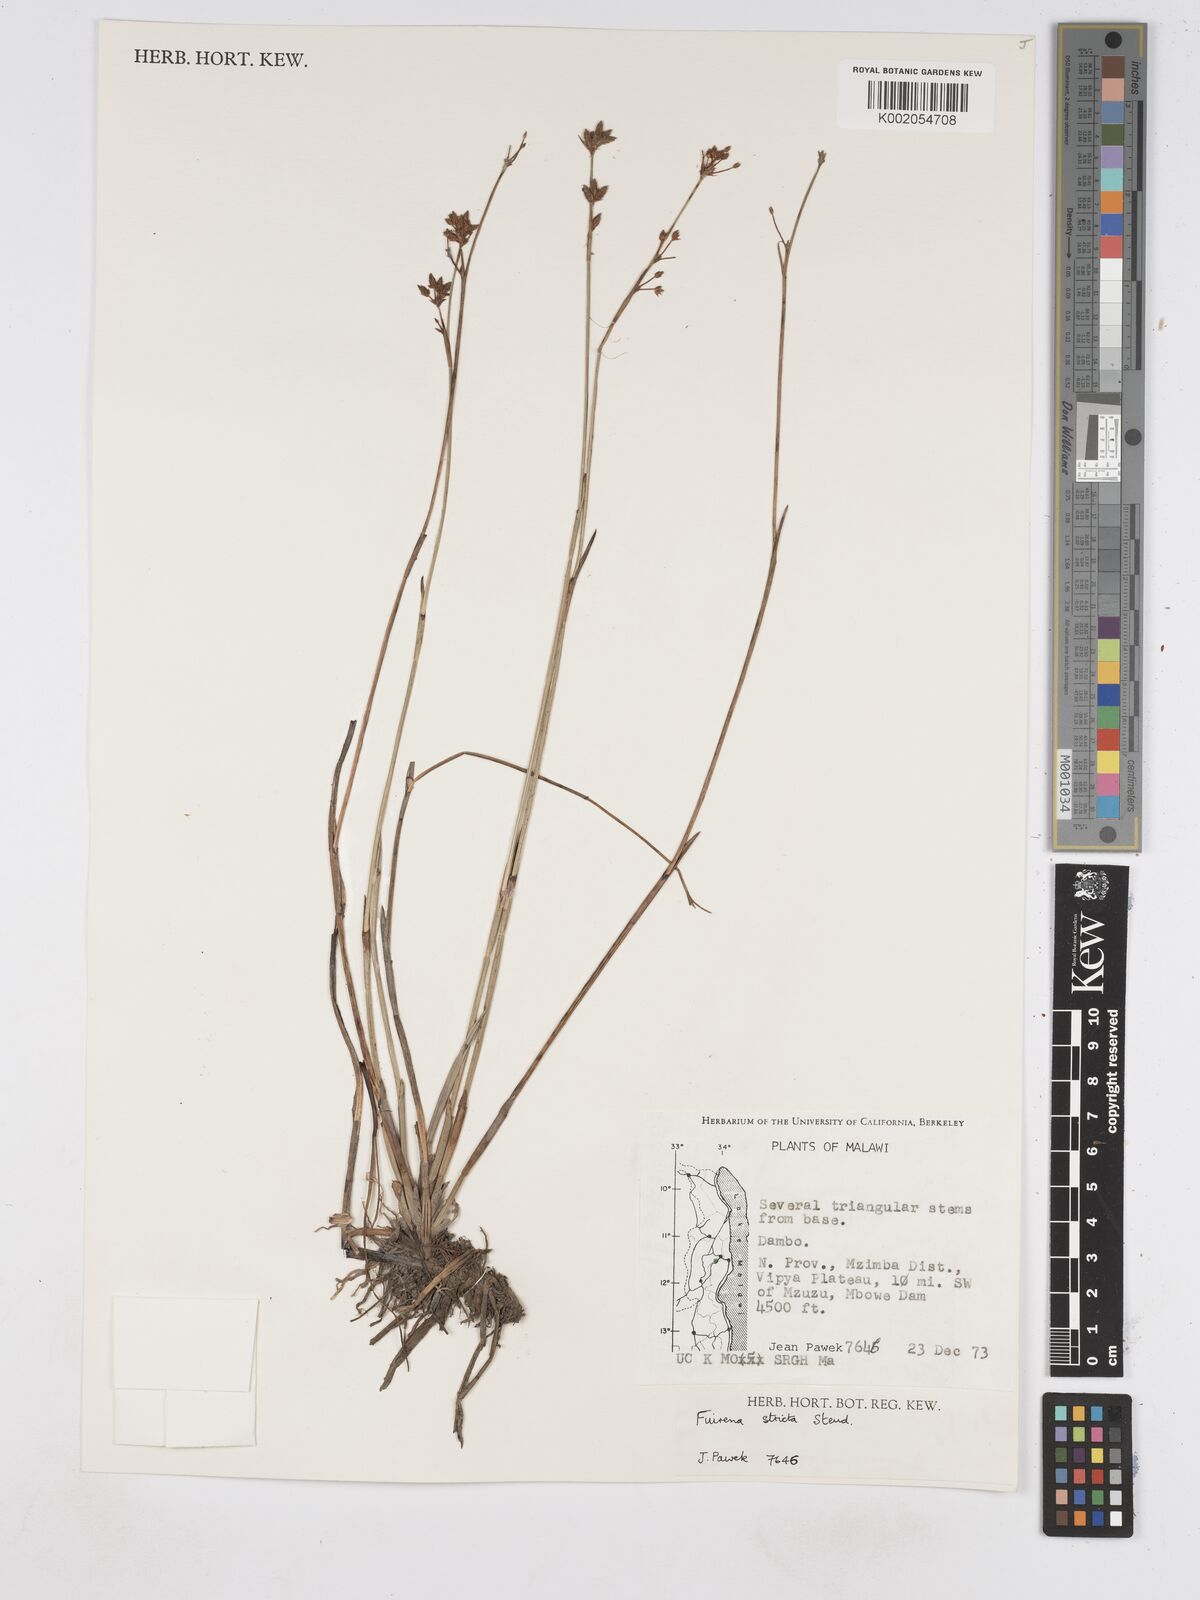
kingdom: Plantae
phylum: Tracheophyta
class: Liliopsida
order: Poales
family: Cyperaceae
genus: Fuirena
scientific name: Fuirena stricta
